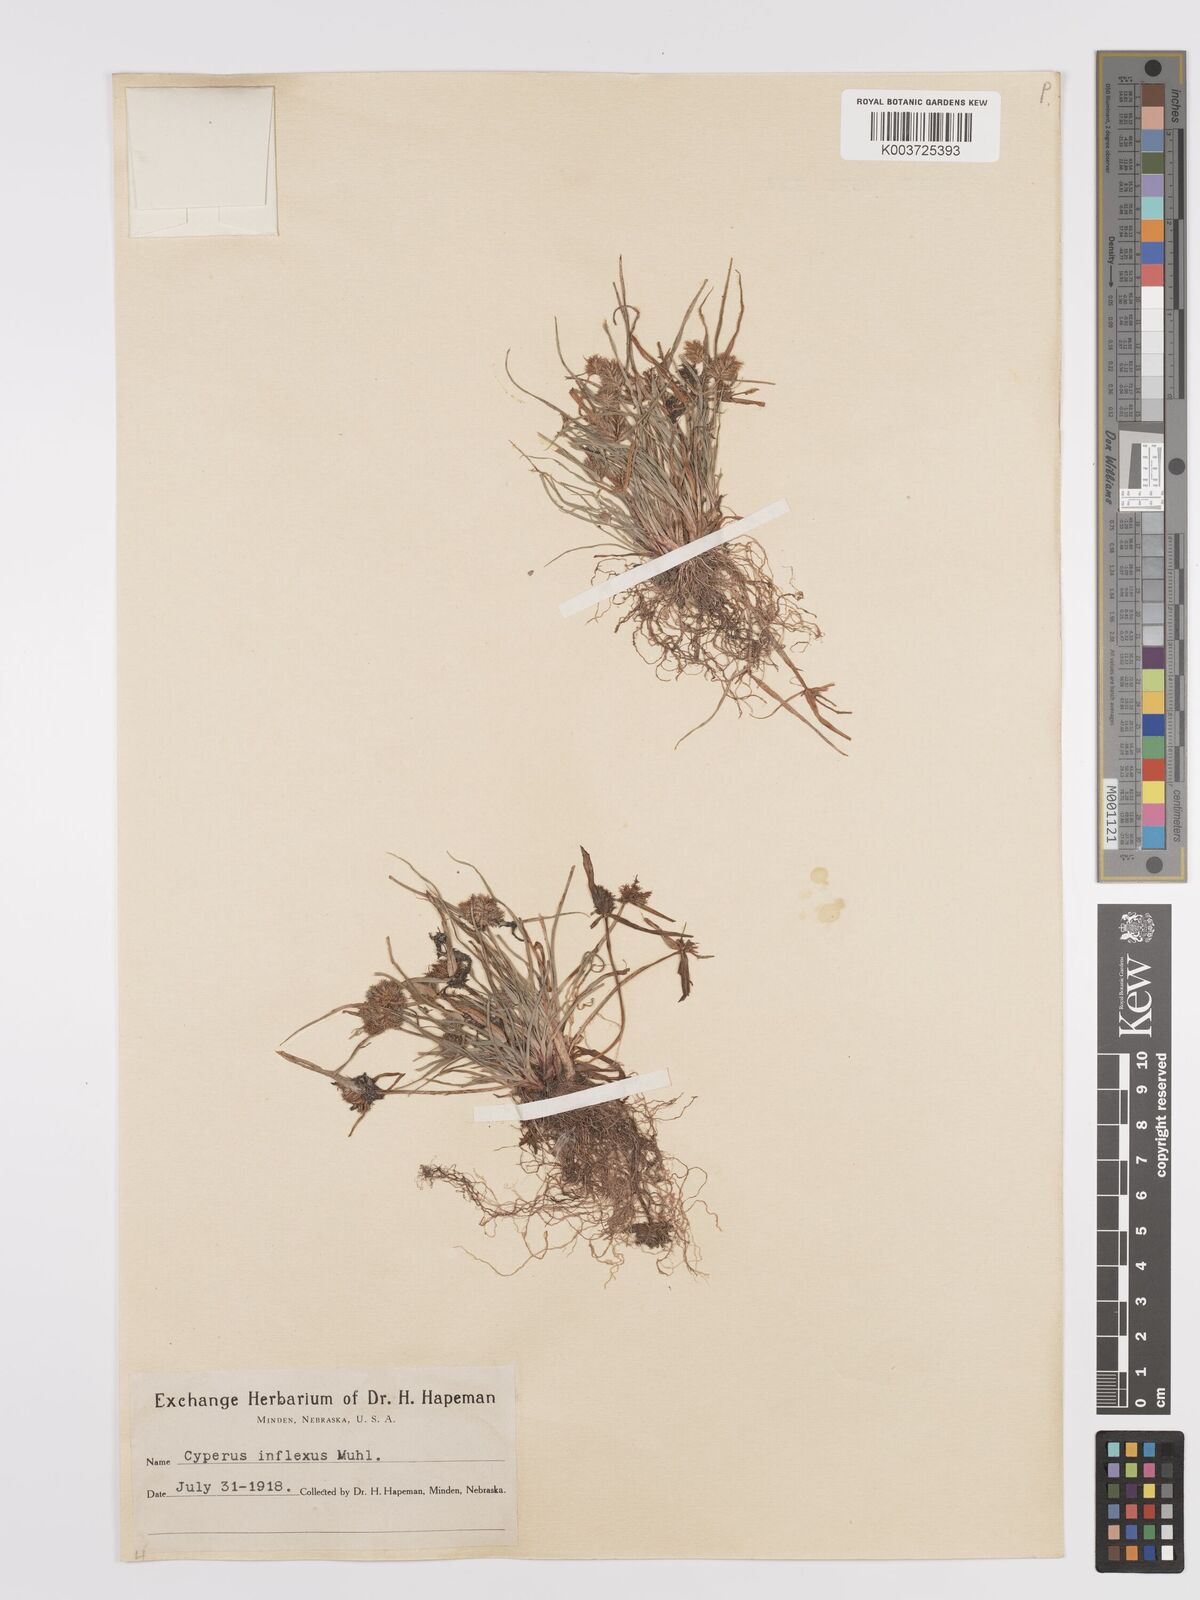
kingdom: Plantae
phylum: Tracheophyta
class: Liliopsida
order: Poales
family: Cyperaceae
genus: Cyperus
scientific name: Cyperus squarrosus
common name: Awned cyperus
